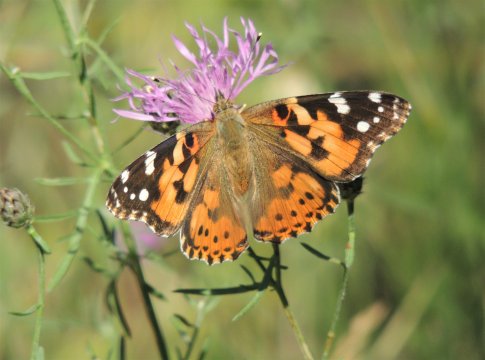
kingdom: Animalia
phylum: Arthropoda
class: Insecta
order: Lepidoptera
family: Nymphalidae
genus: Vanessa
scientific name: Vanessa cardui
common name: Painted Lady
